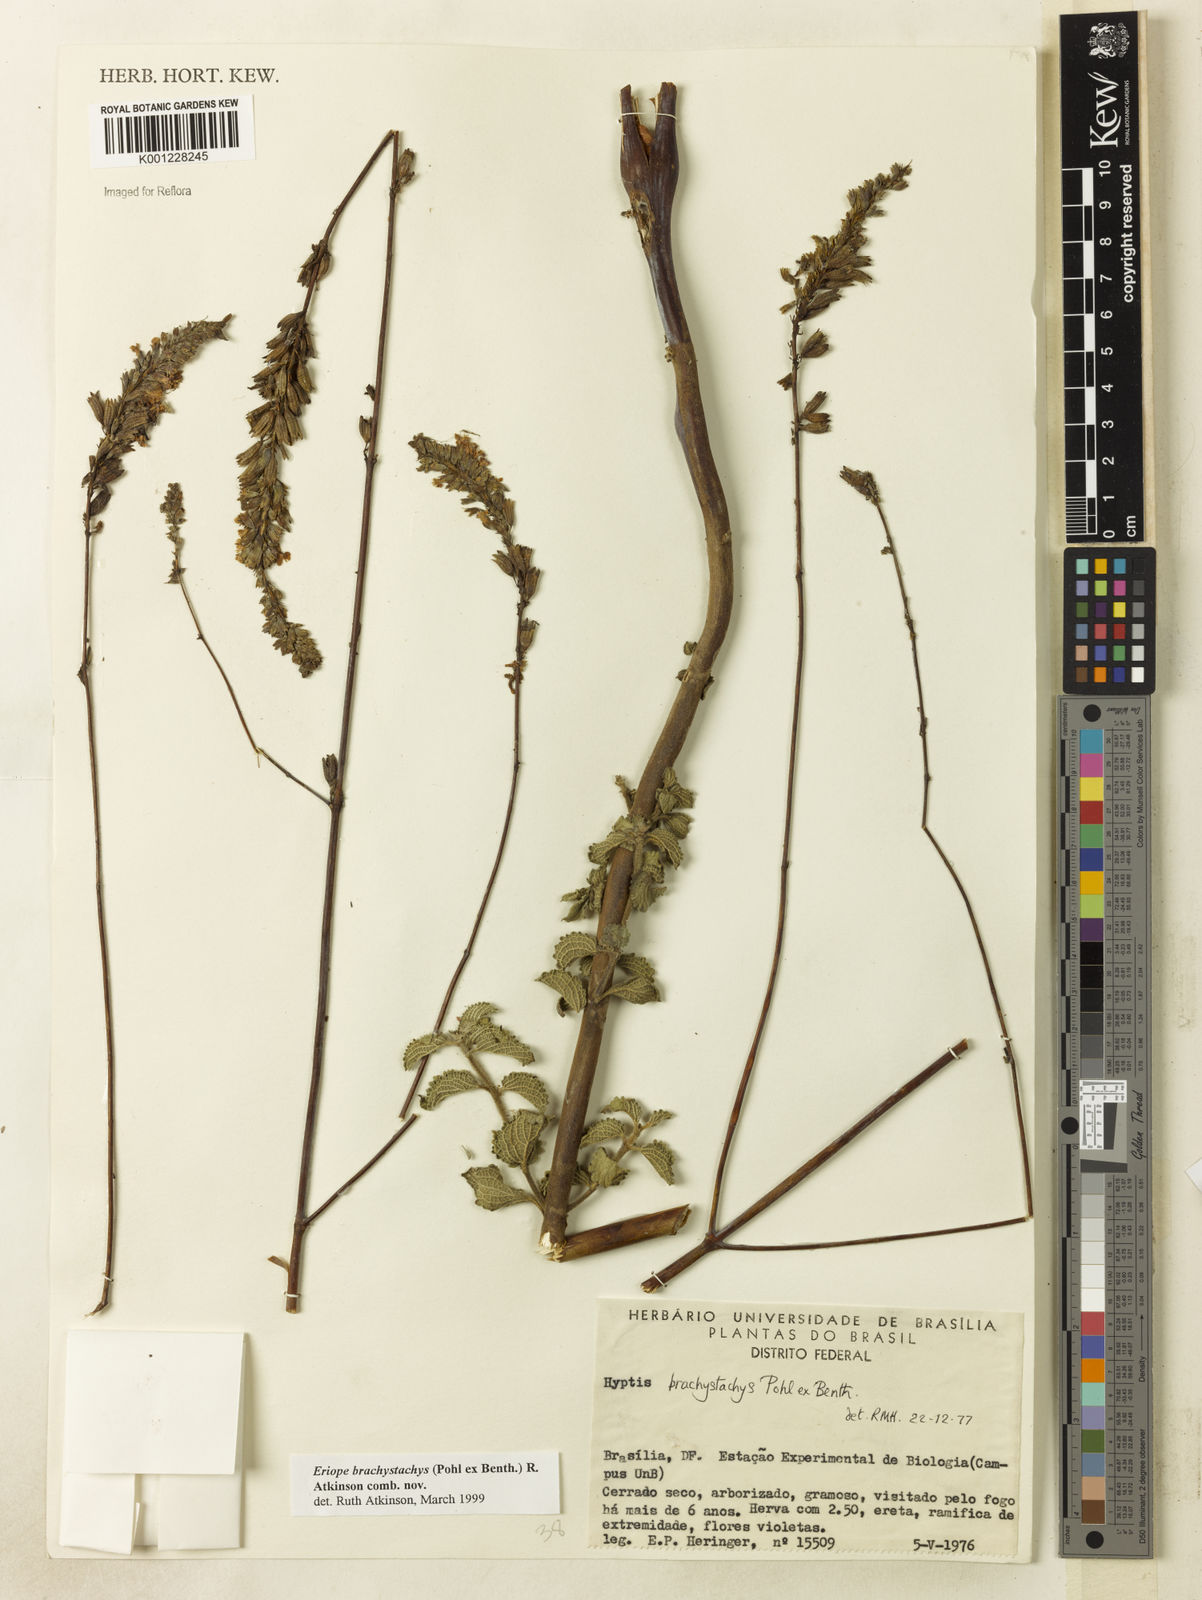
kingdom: Plantae
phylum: Tracheophyta
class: Magnoliopsida
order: Lamiales
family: Lamiaceae
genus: Hypenia
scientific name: Hypenia brachystachys
